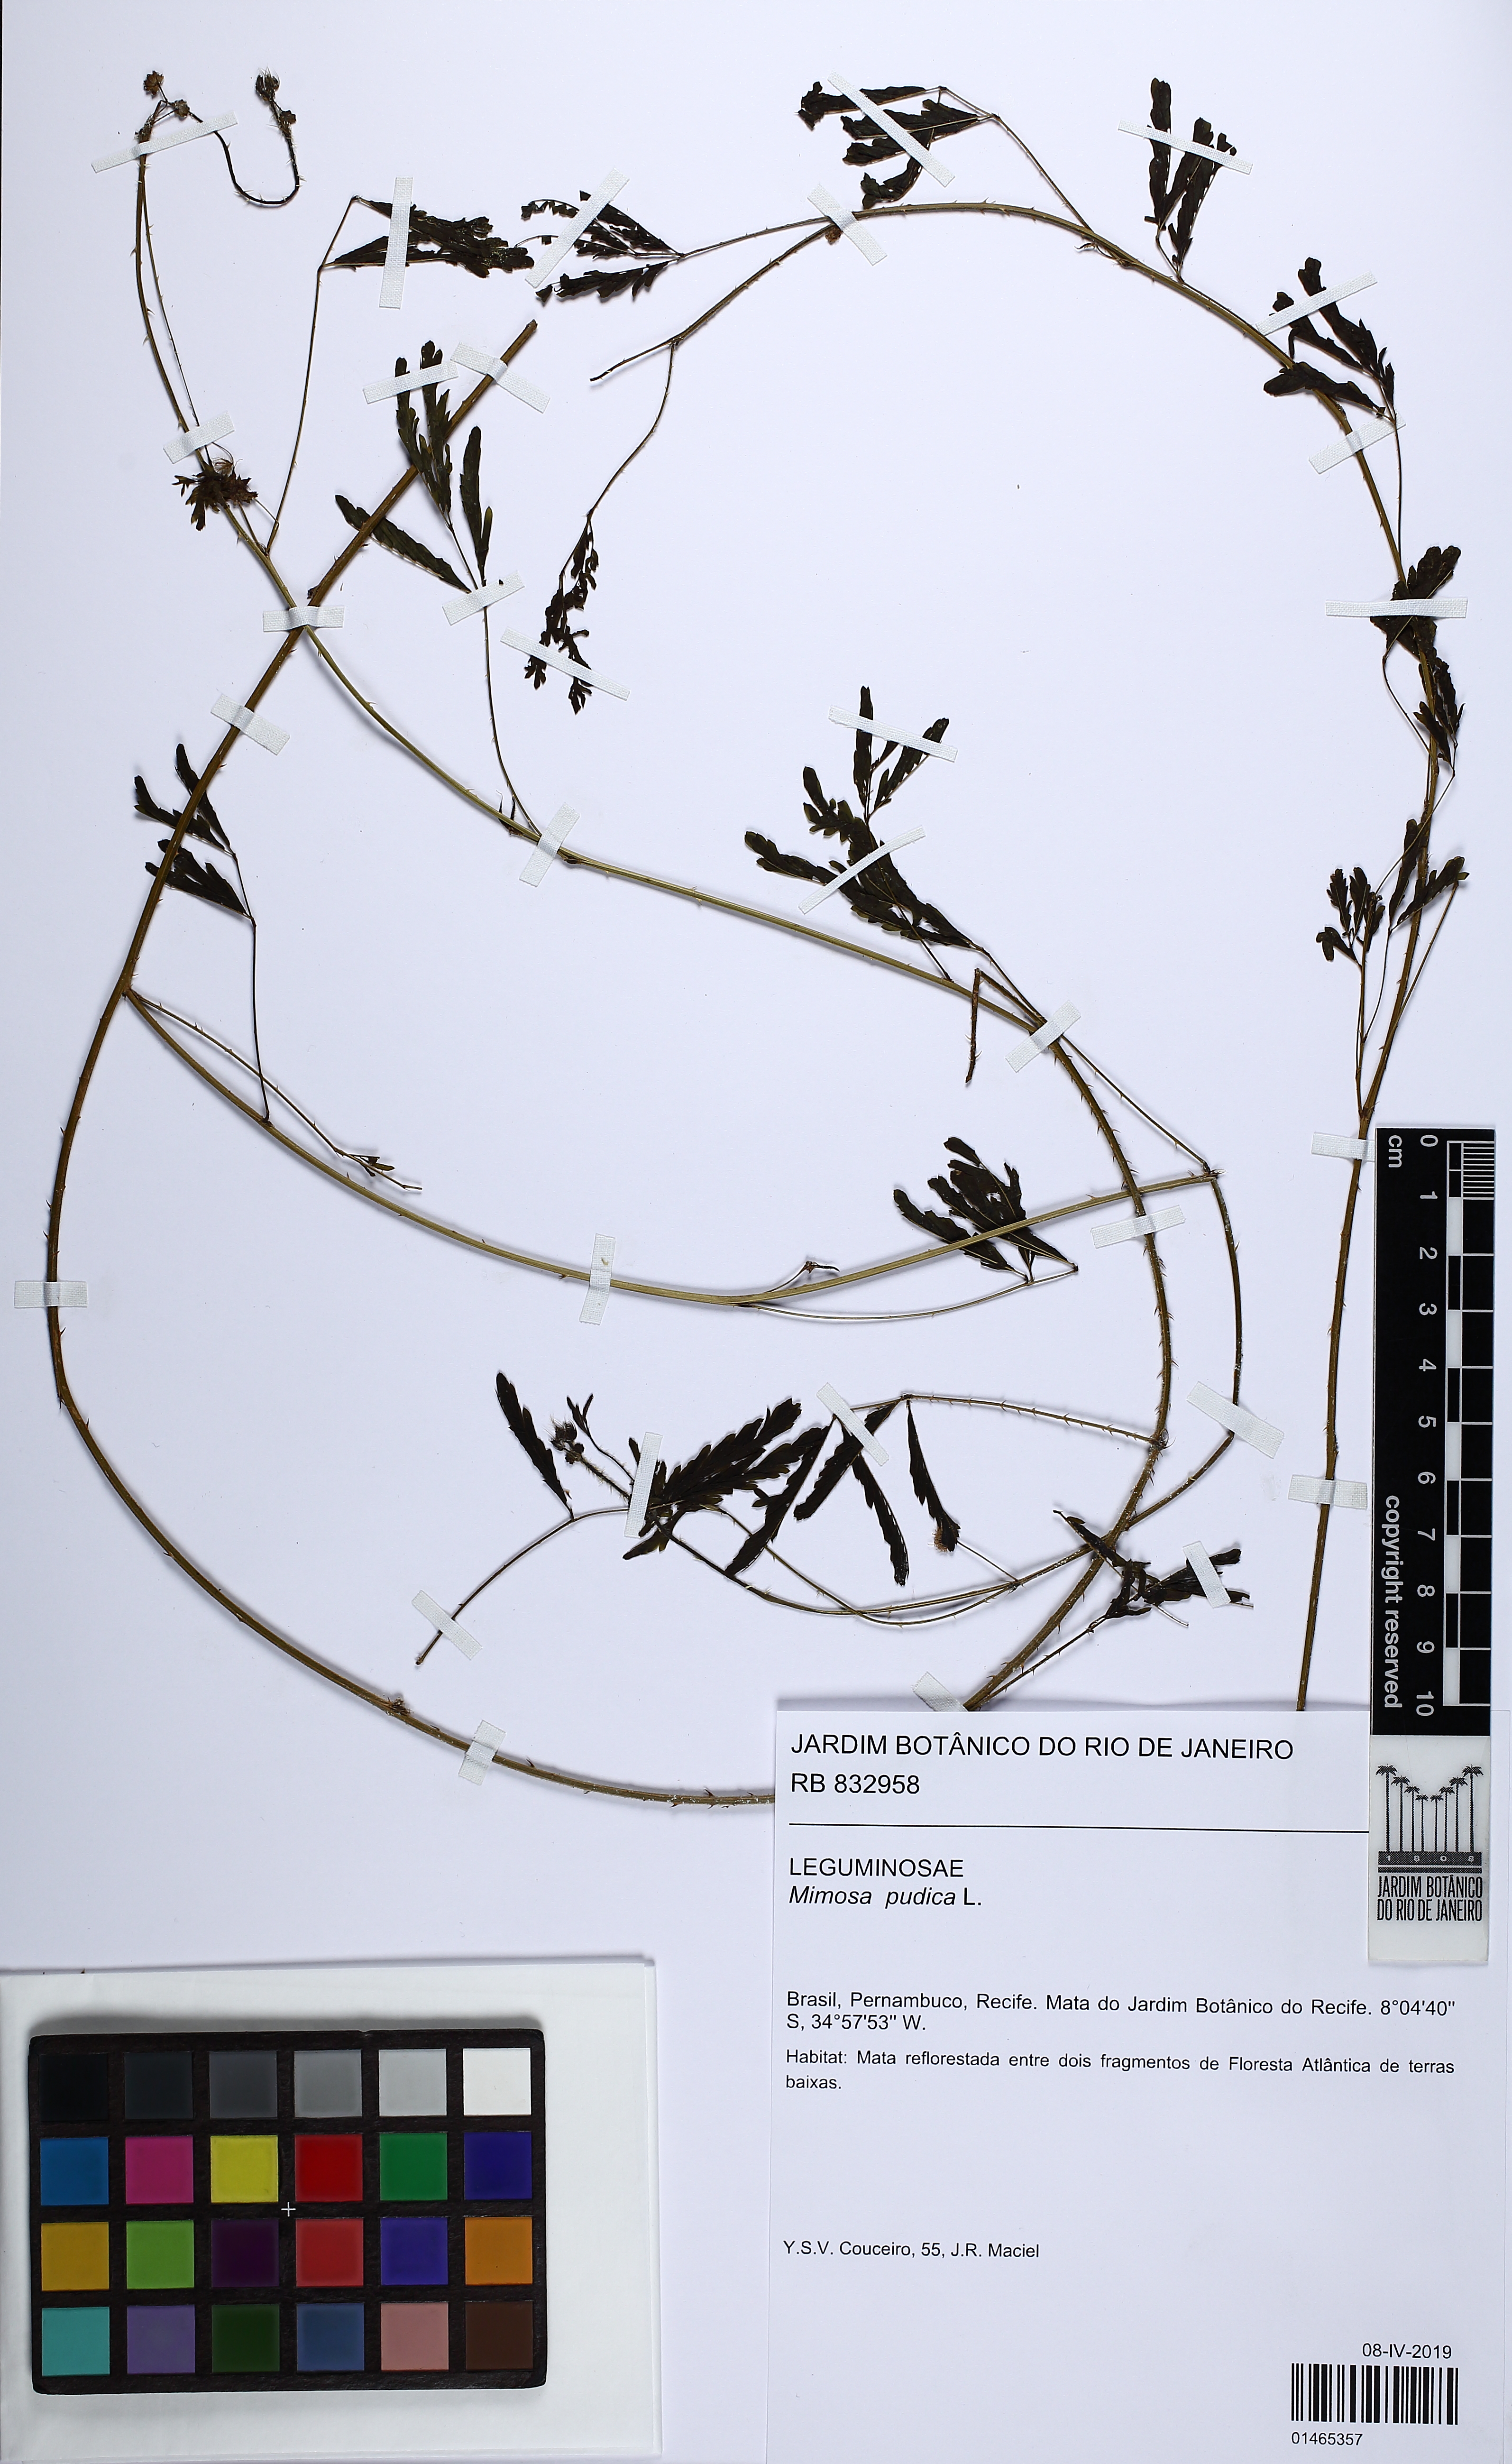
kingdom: Plantae
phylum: Tracheophyta
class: Magnoliopsida
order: Fabales
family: Fabaceae
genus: Mimosa
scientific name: Mimosa pudica
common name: Sensitive plant
